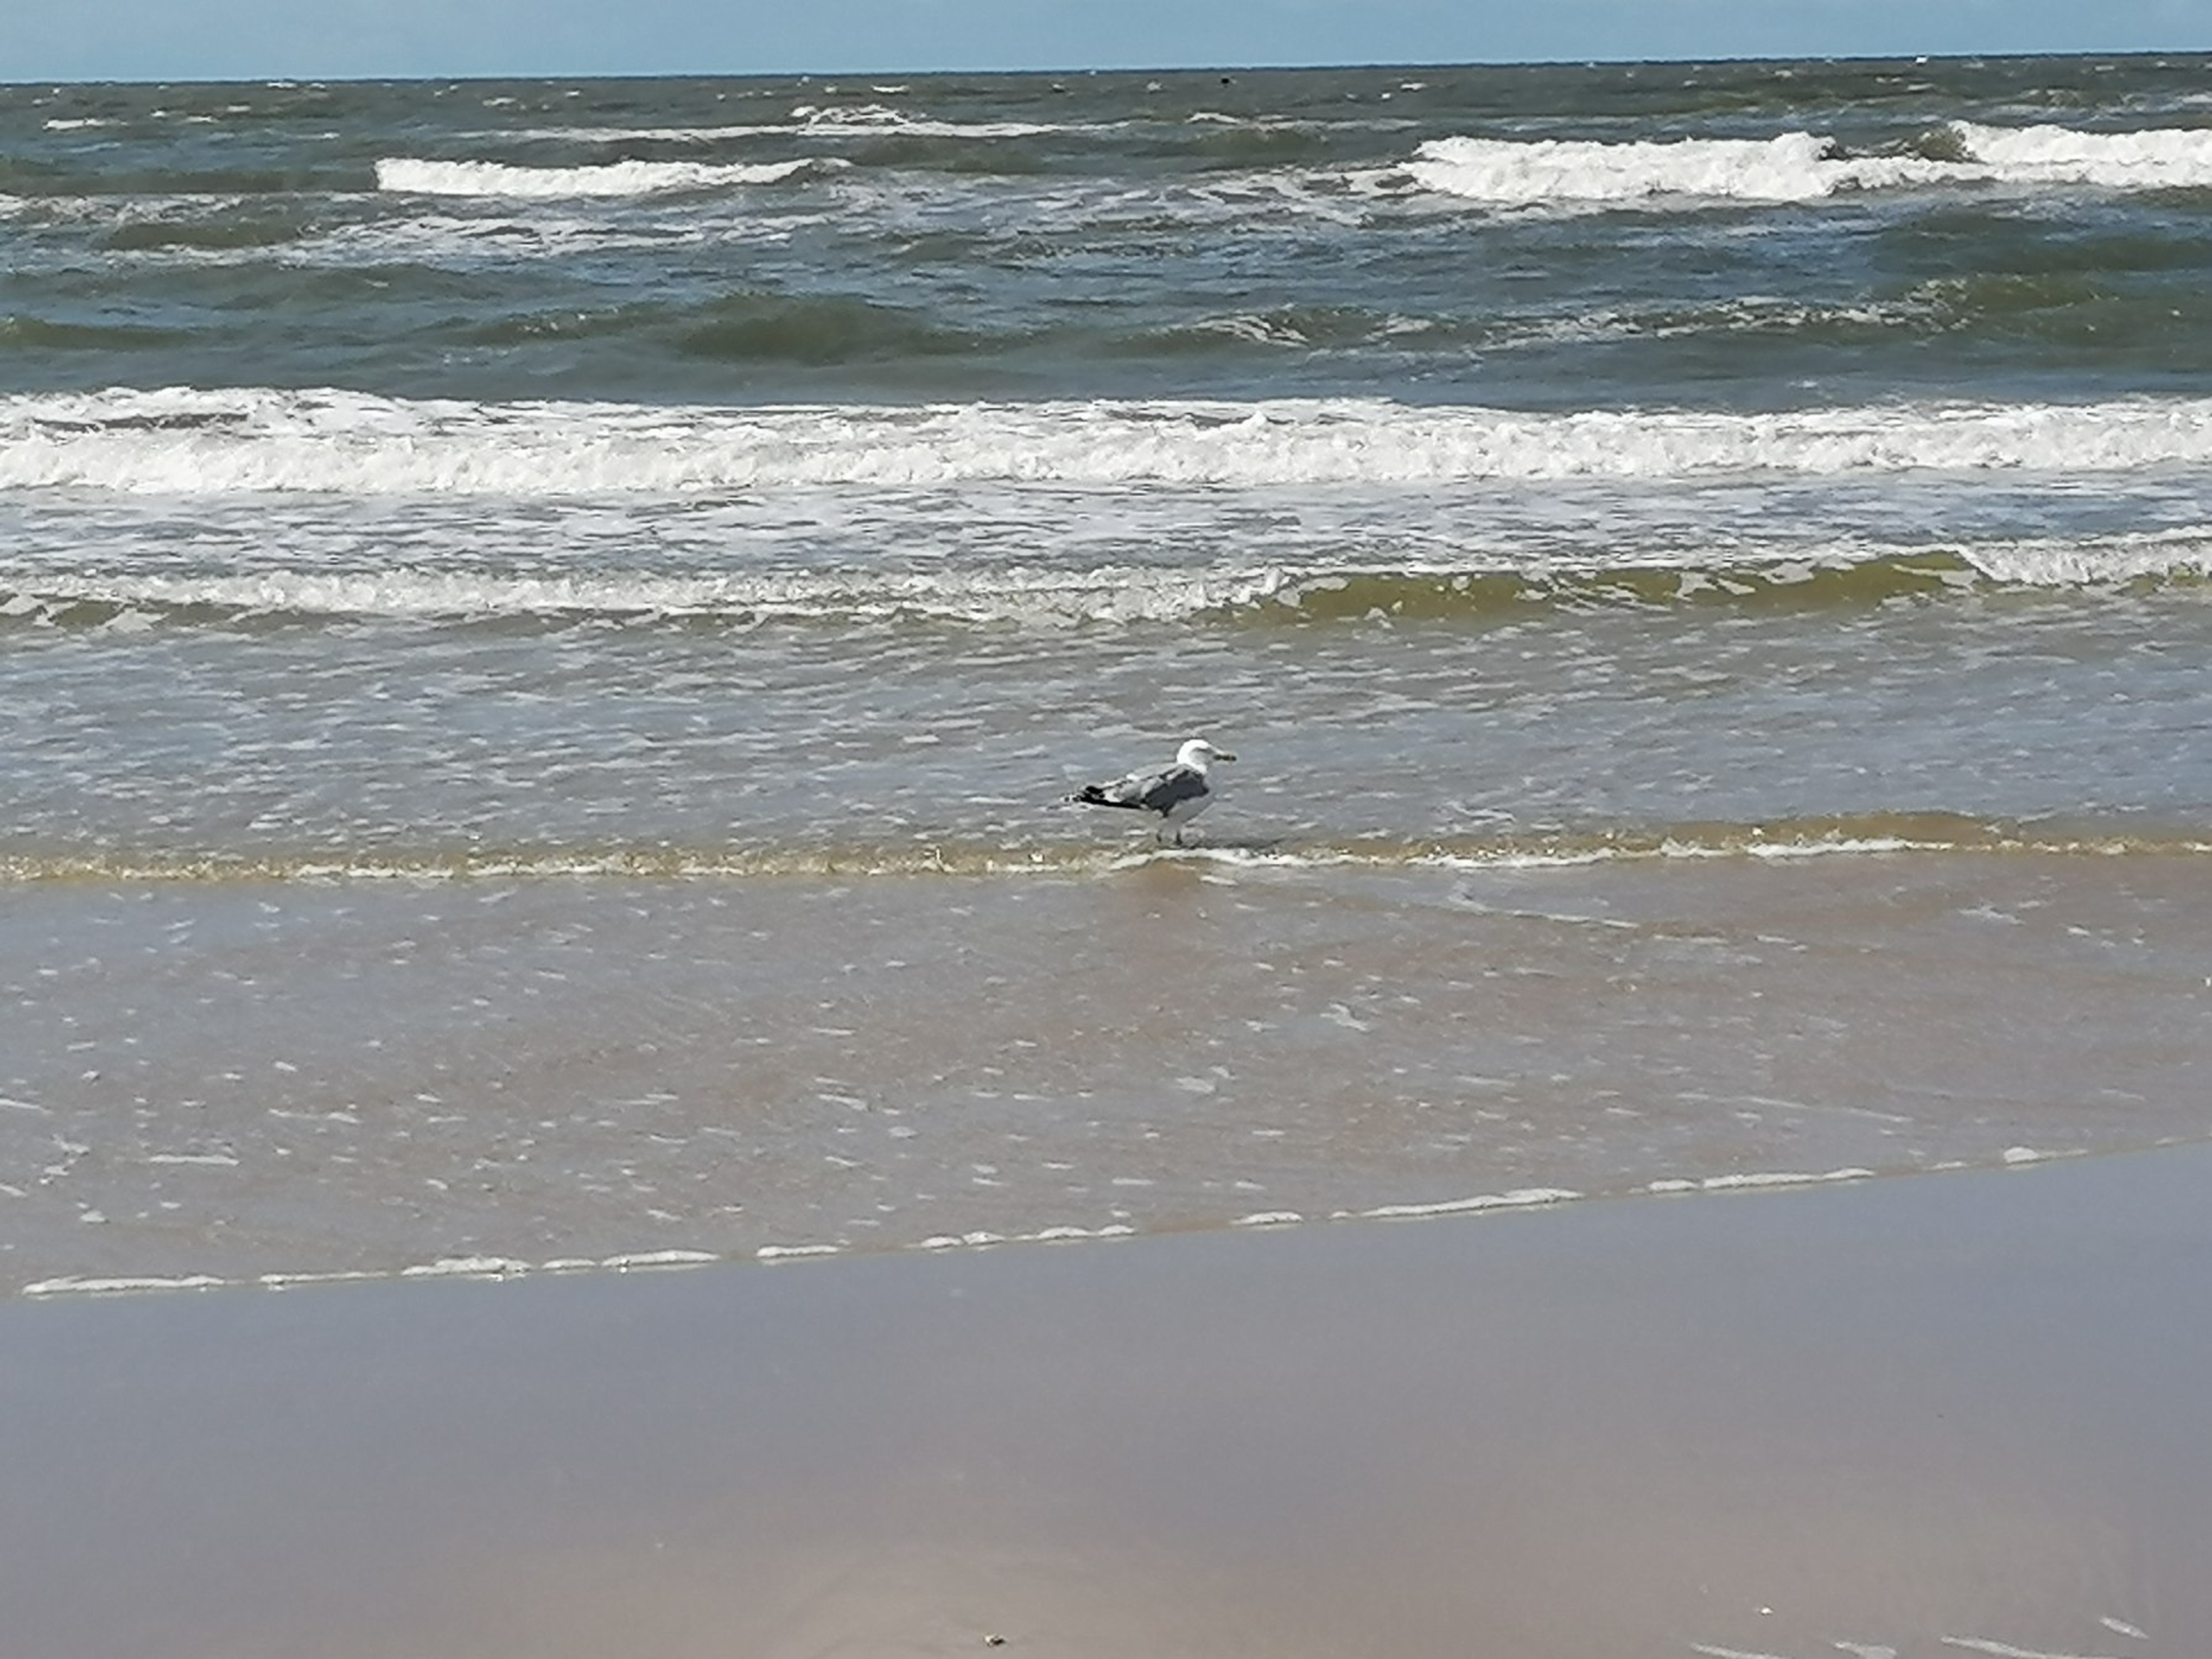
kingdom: Animalia
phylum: Chordata
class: Aves
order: Charadriiformes
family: Laridae
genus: Larus
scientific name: Larus argentatus
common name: Sølvmåge
